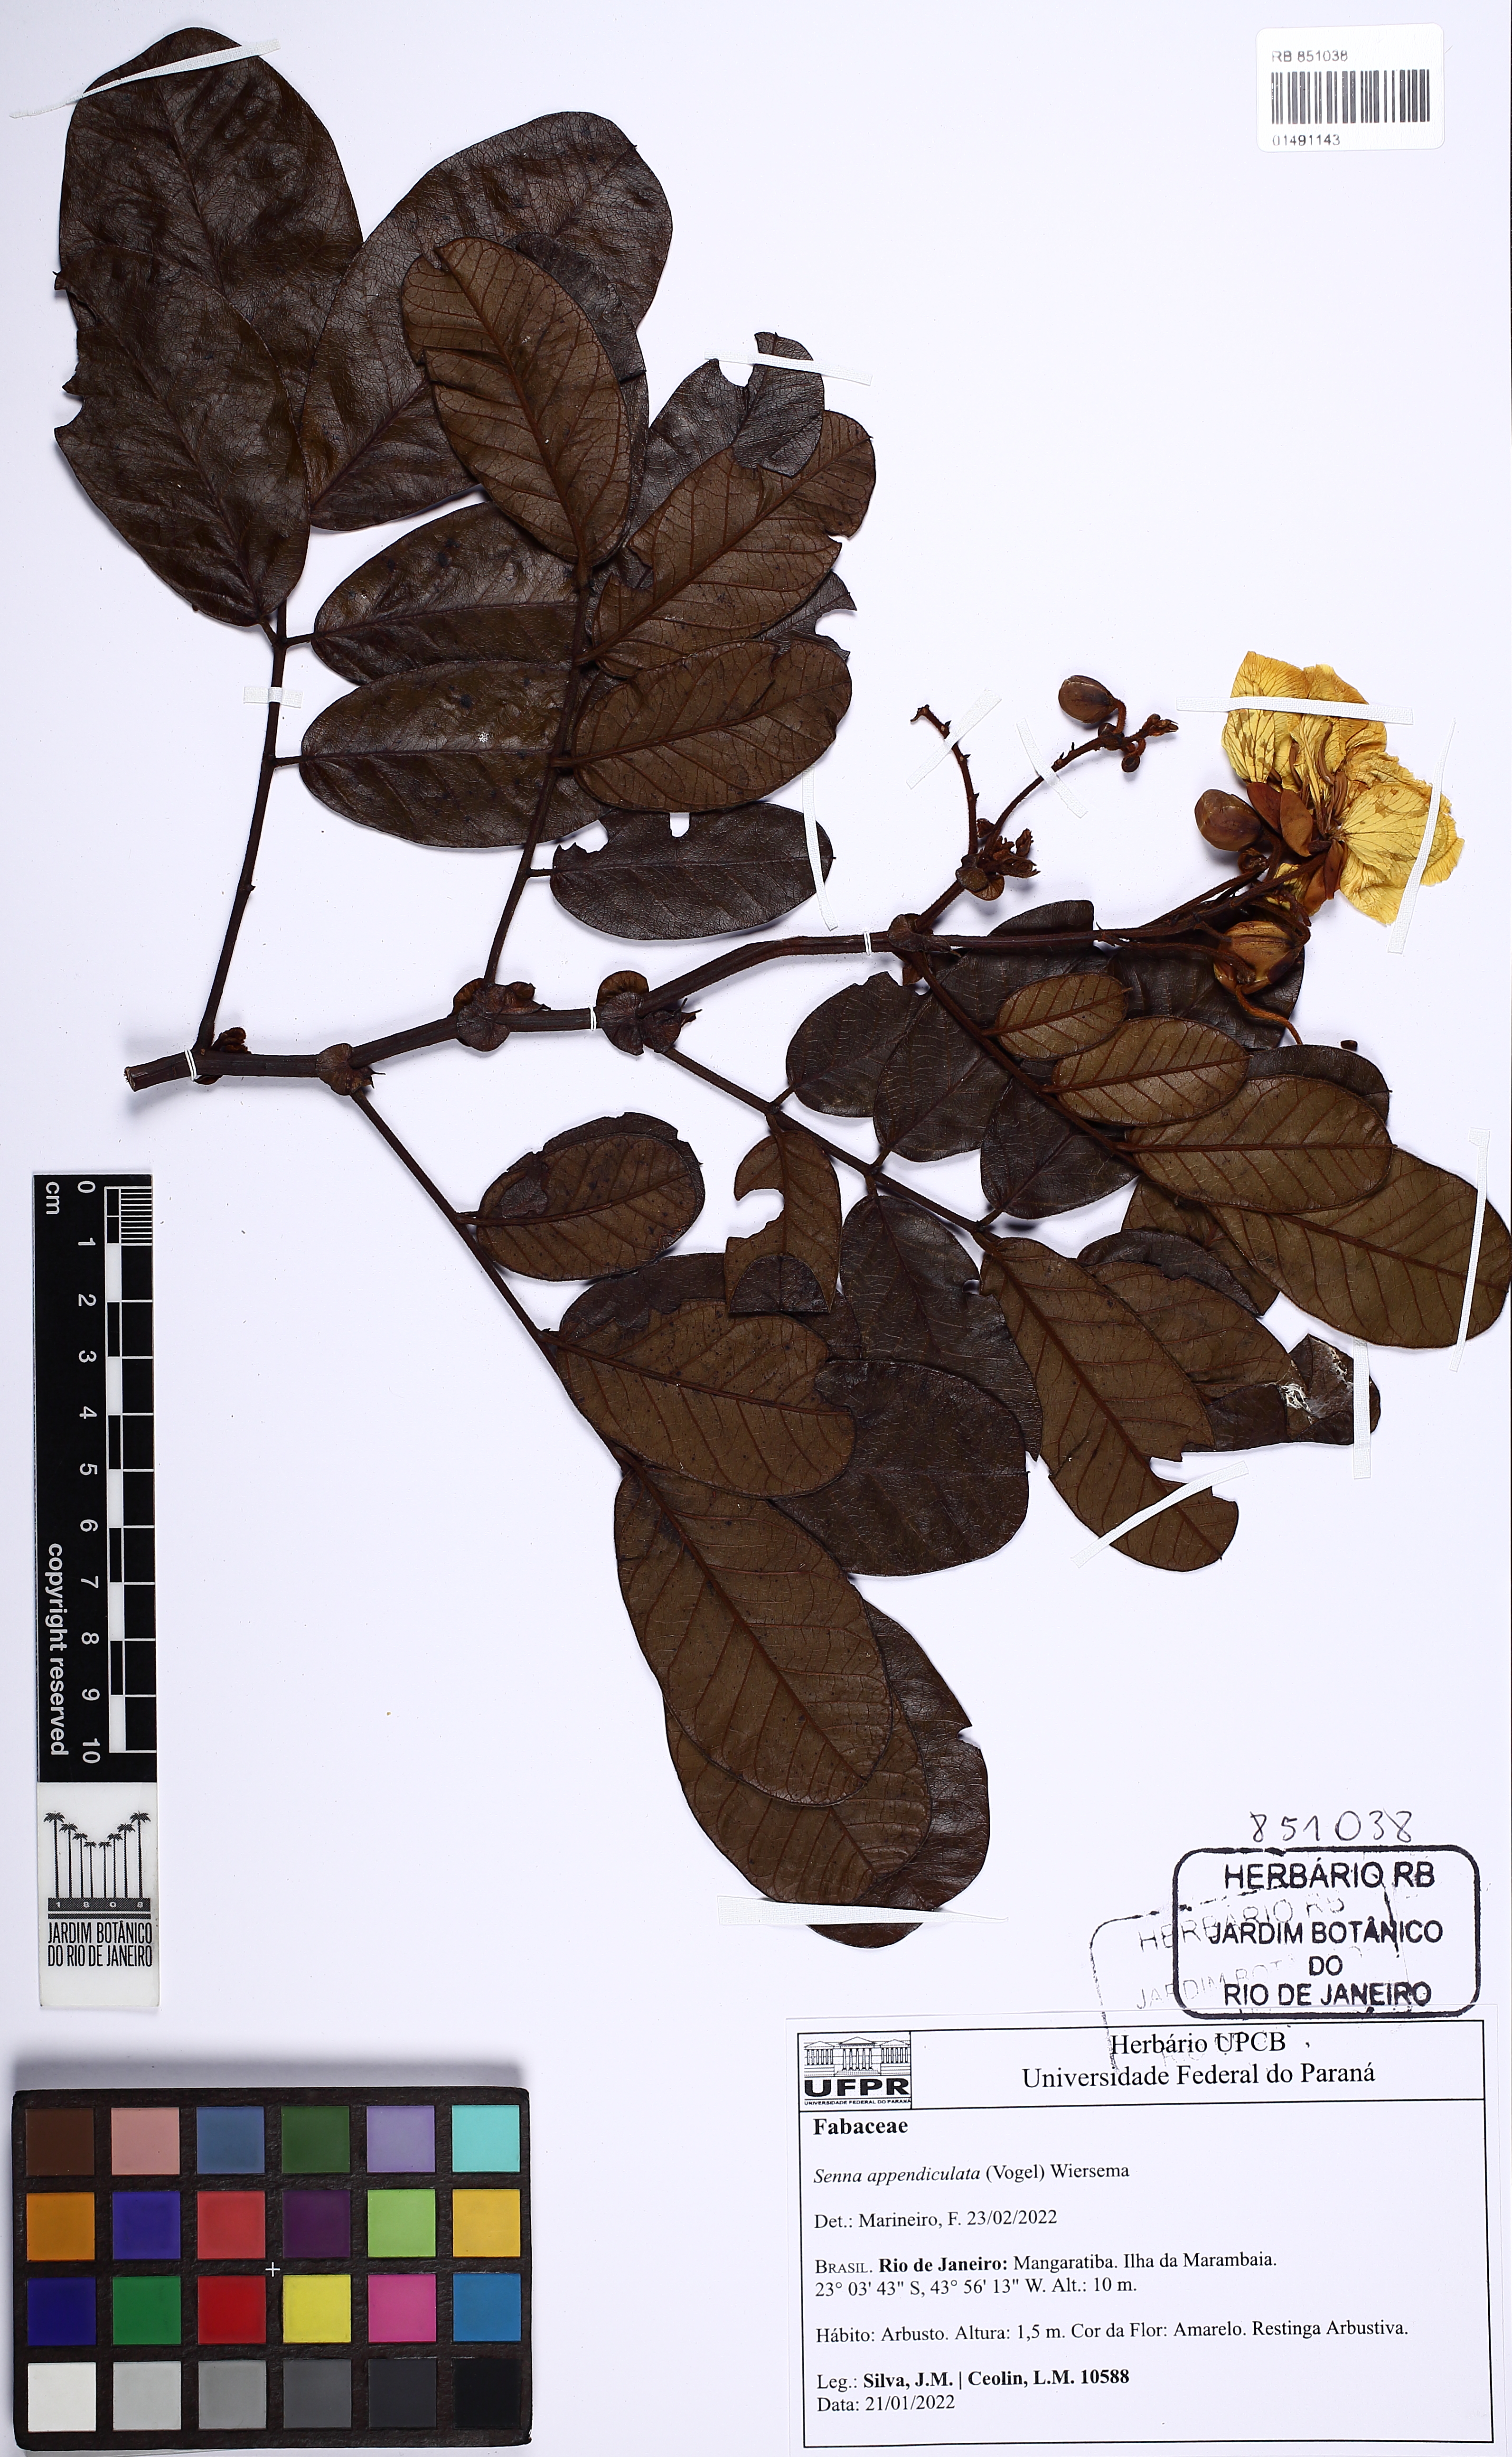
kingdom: Plantae
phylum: Tracheophyta
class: Magnoliopsida
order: Fabales
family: Fabaceae
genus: Senna
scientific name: Senna appendiculata
